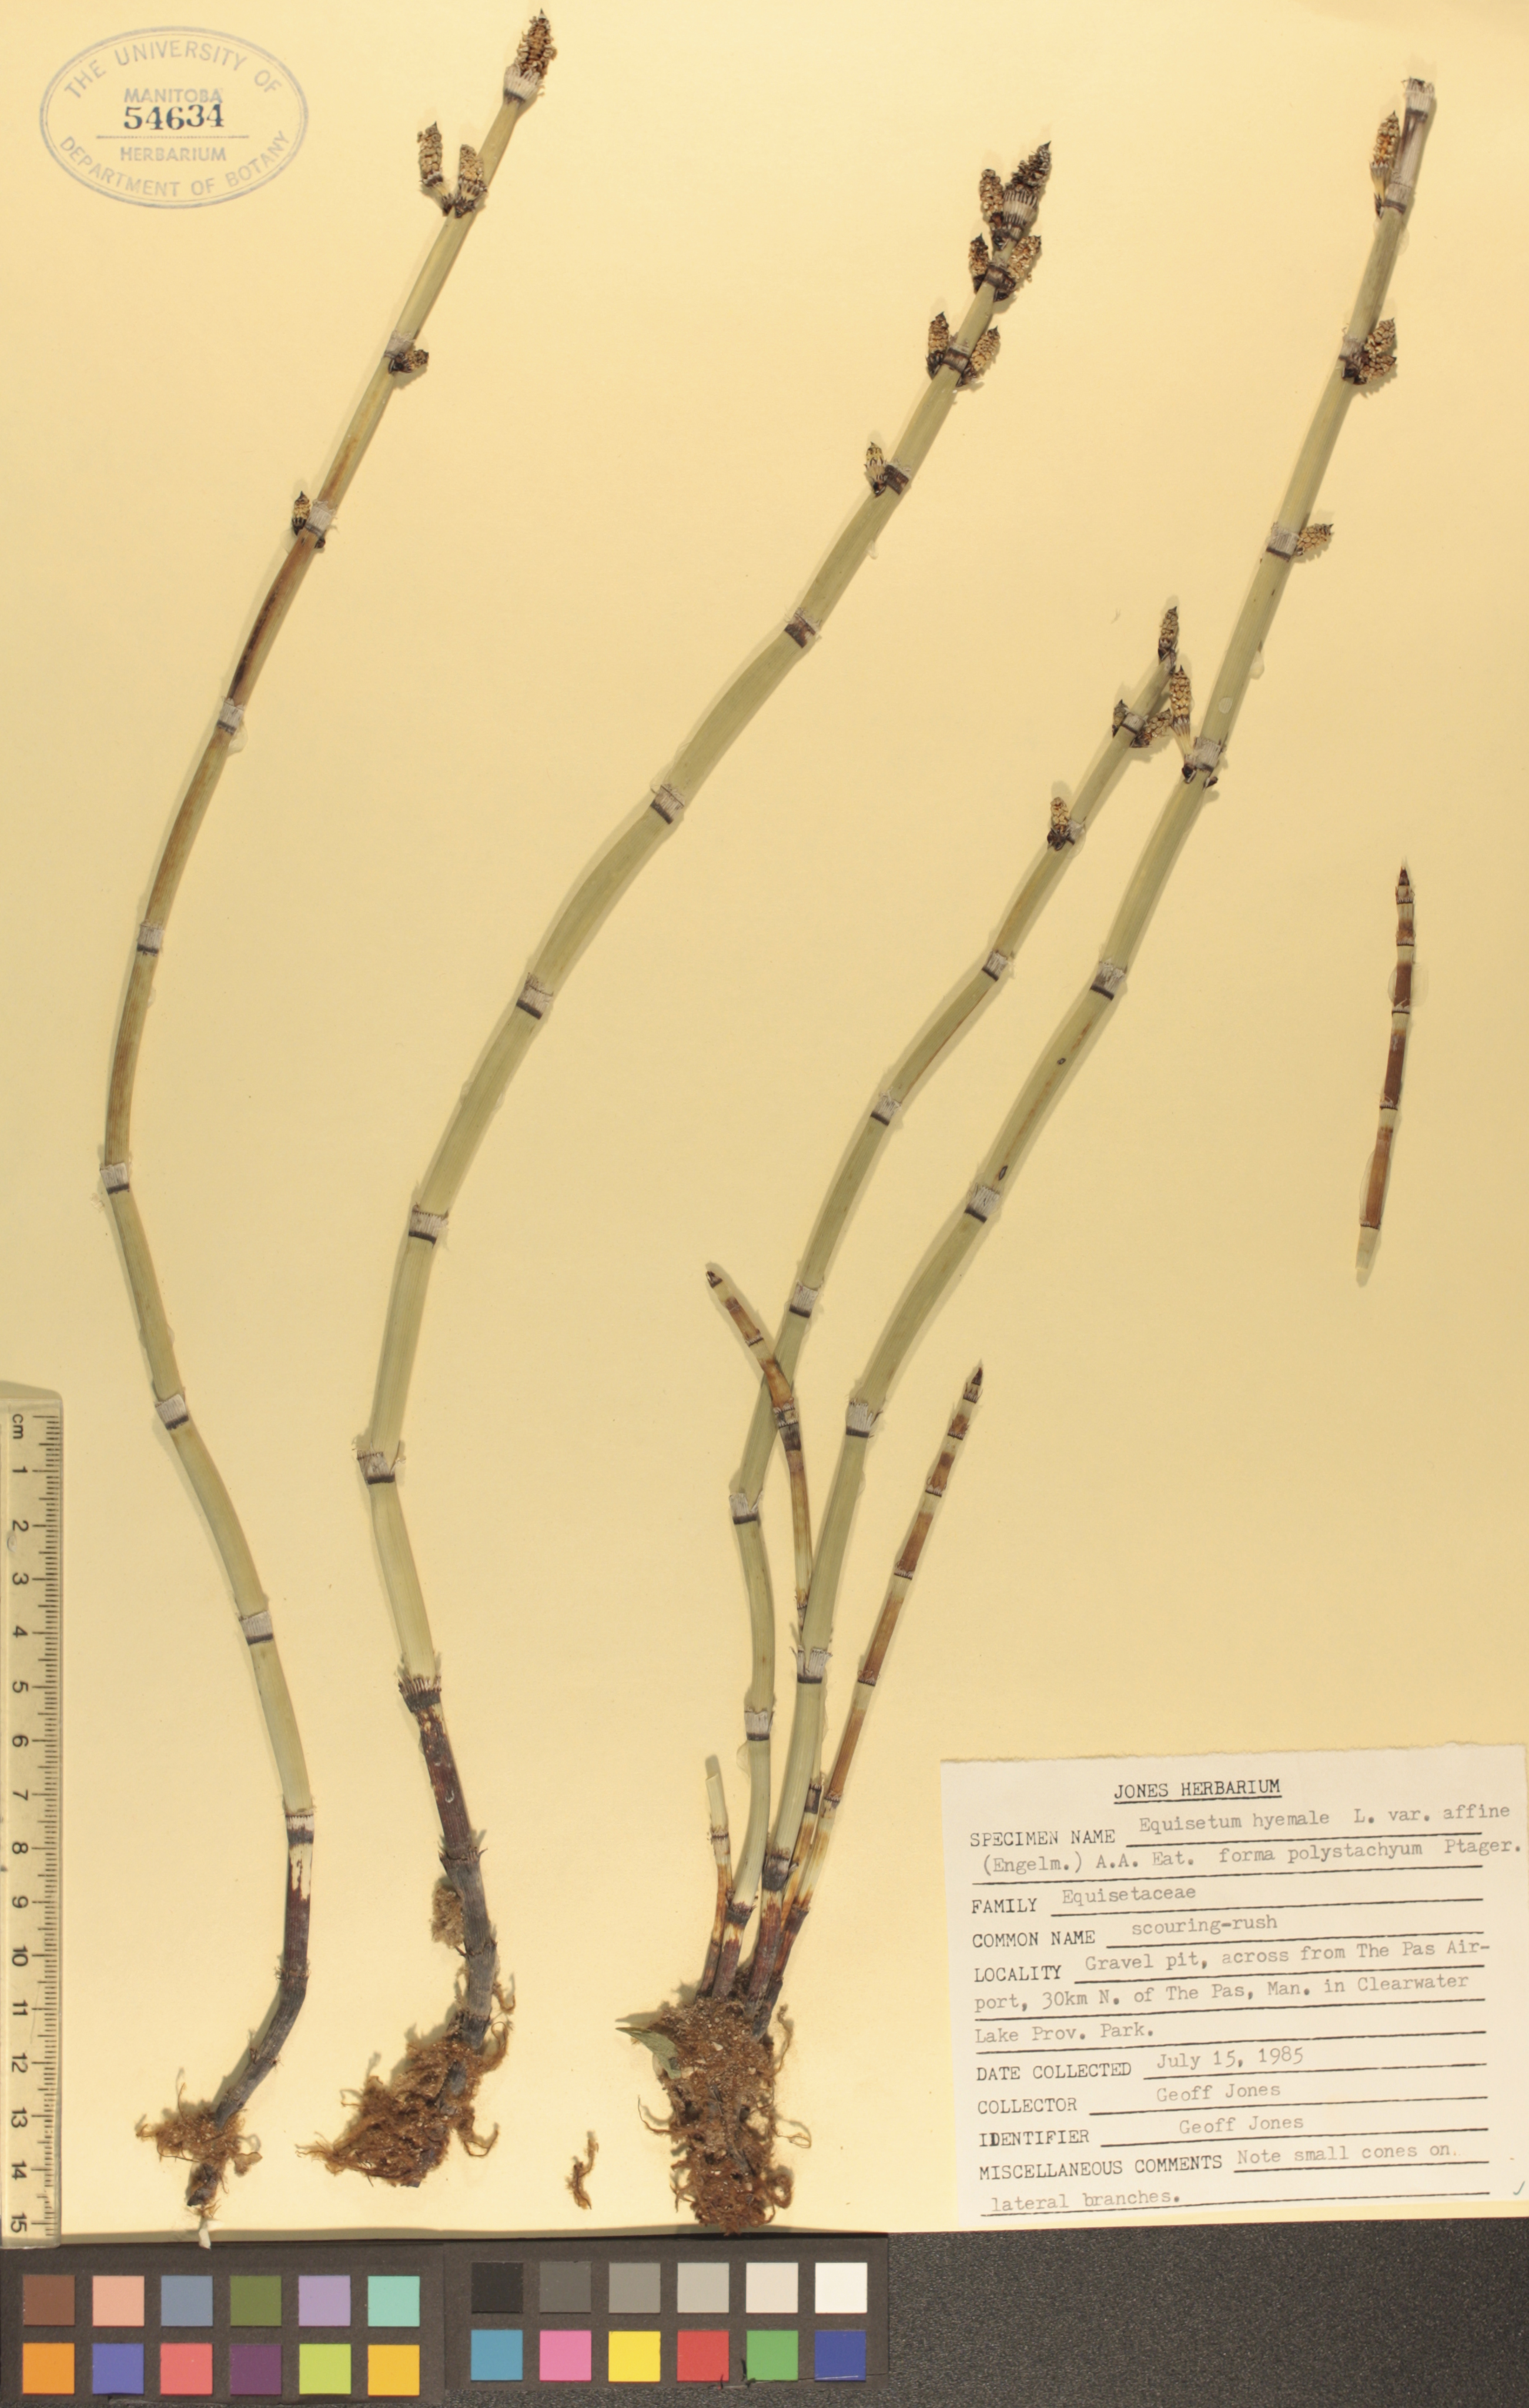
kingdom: Plantae
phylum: Tracheophyta
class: Polypodiopsida
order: Equisetales
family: Equisetaceae
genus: Equisetum
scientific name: Equisetum praealtum
